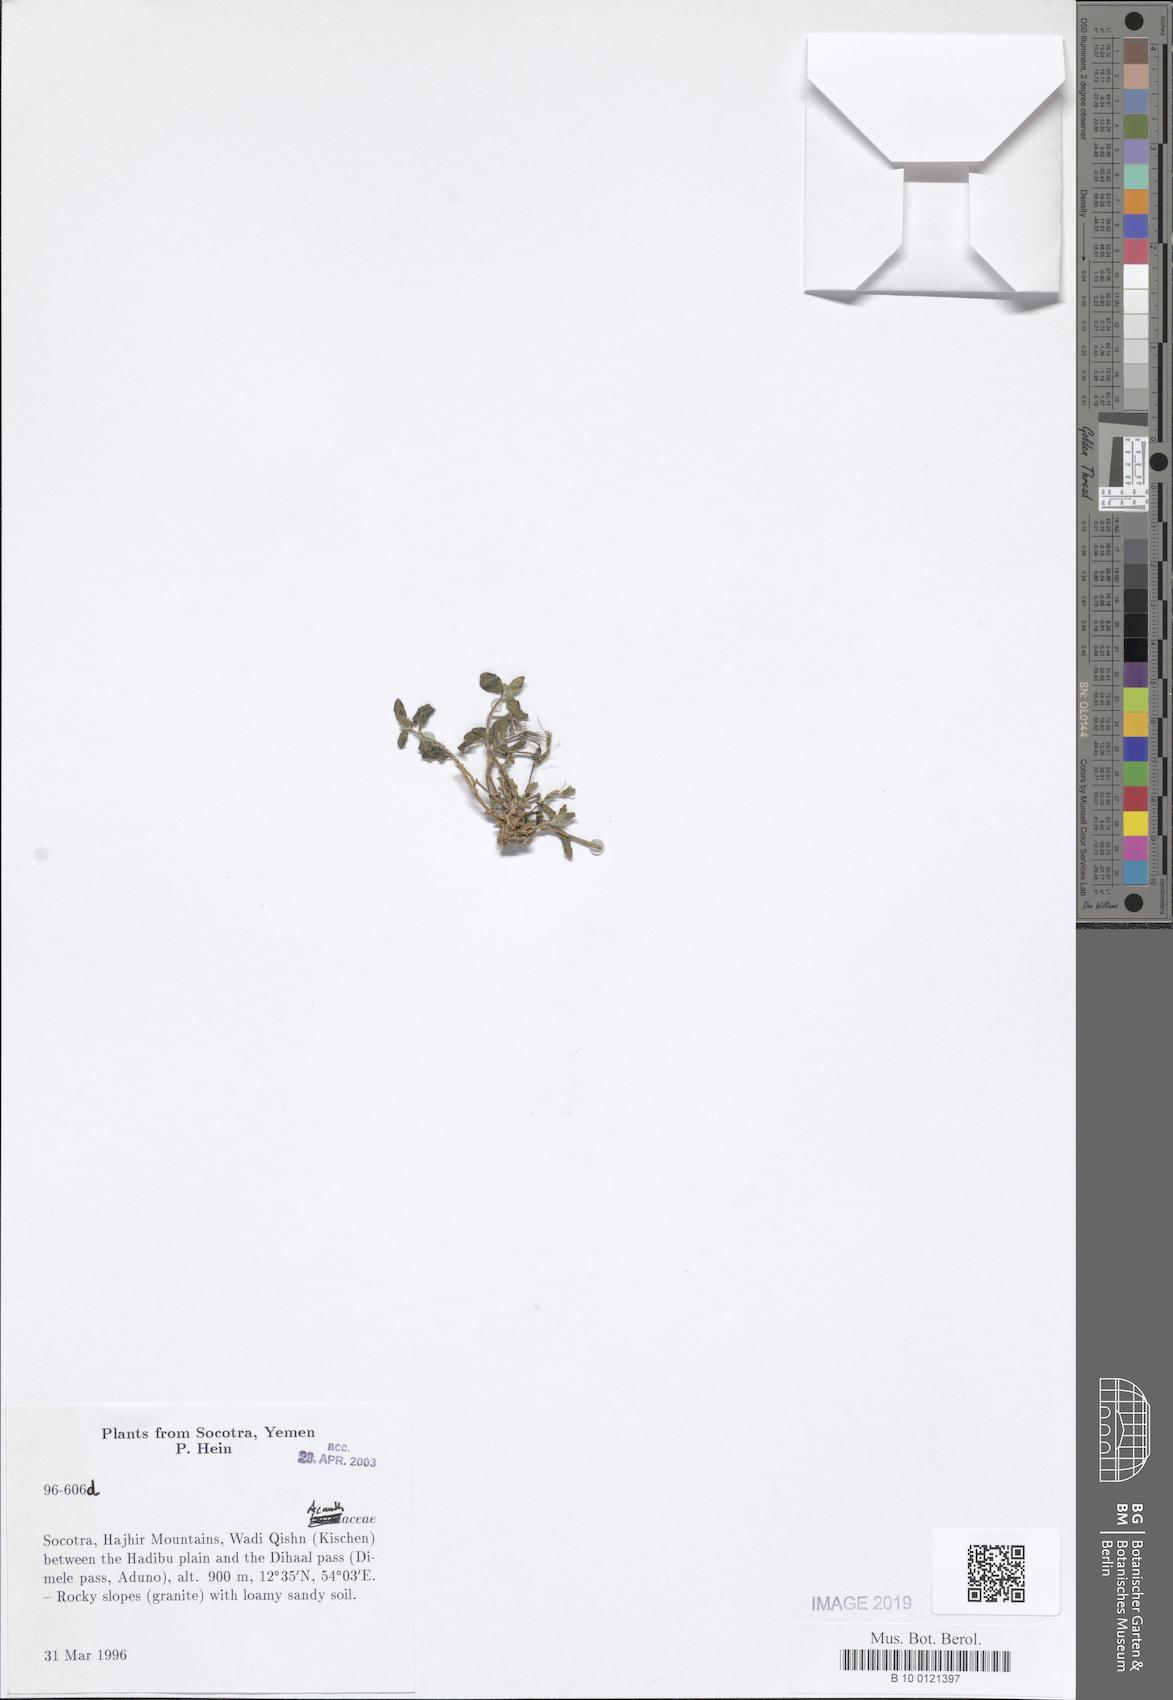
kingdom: Plantae
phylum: Tracheophyta
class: Magnoliopsida
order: Lamiales
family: Acanthaceae
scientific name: Acanthaceae
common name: Acanthaceae
